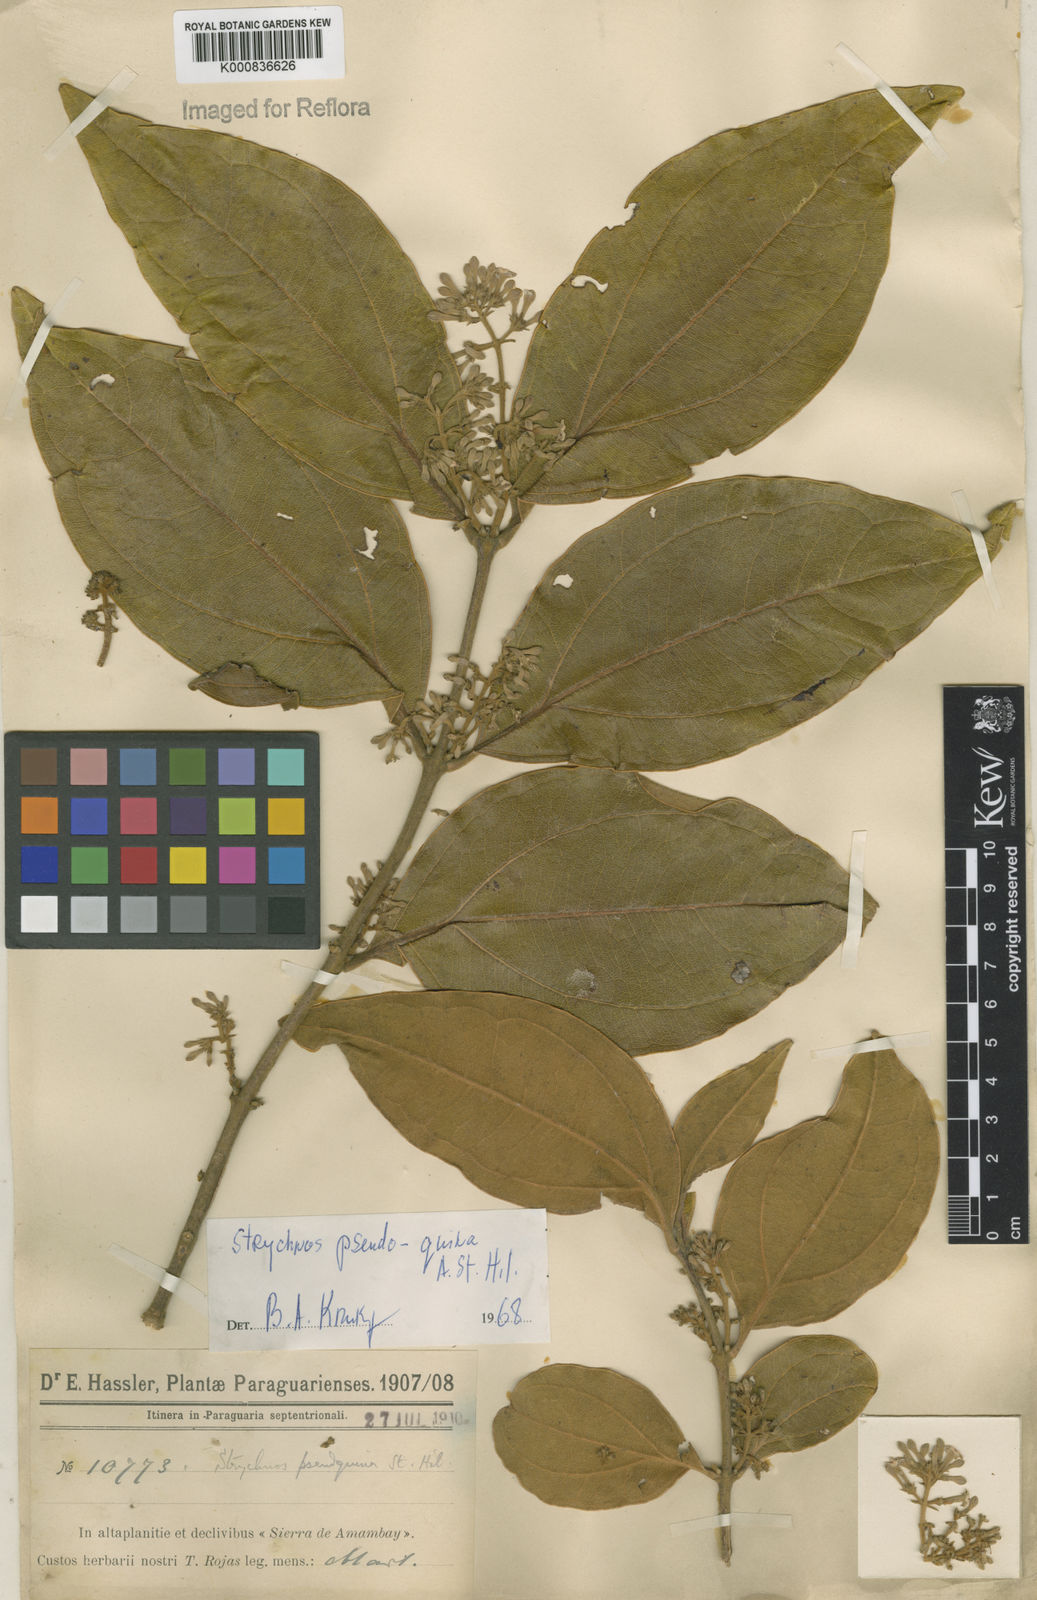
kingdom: Plantae
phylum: Tracheophyta
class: Magnoliopsida
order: Gentianales
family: Loganiaceae
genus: Strychnos
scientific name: Strychnos pseudoquina
